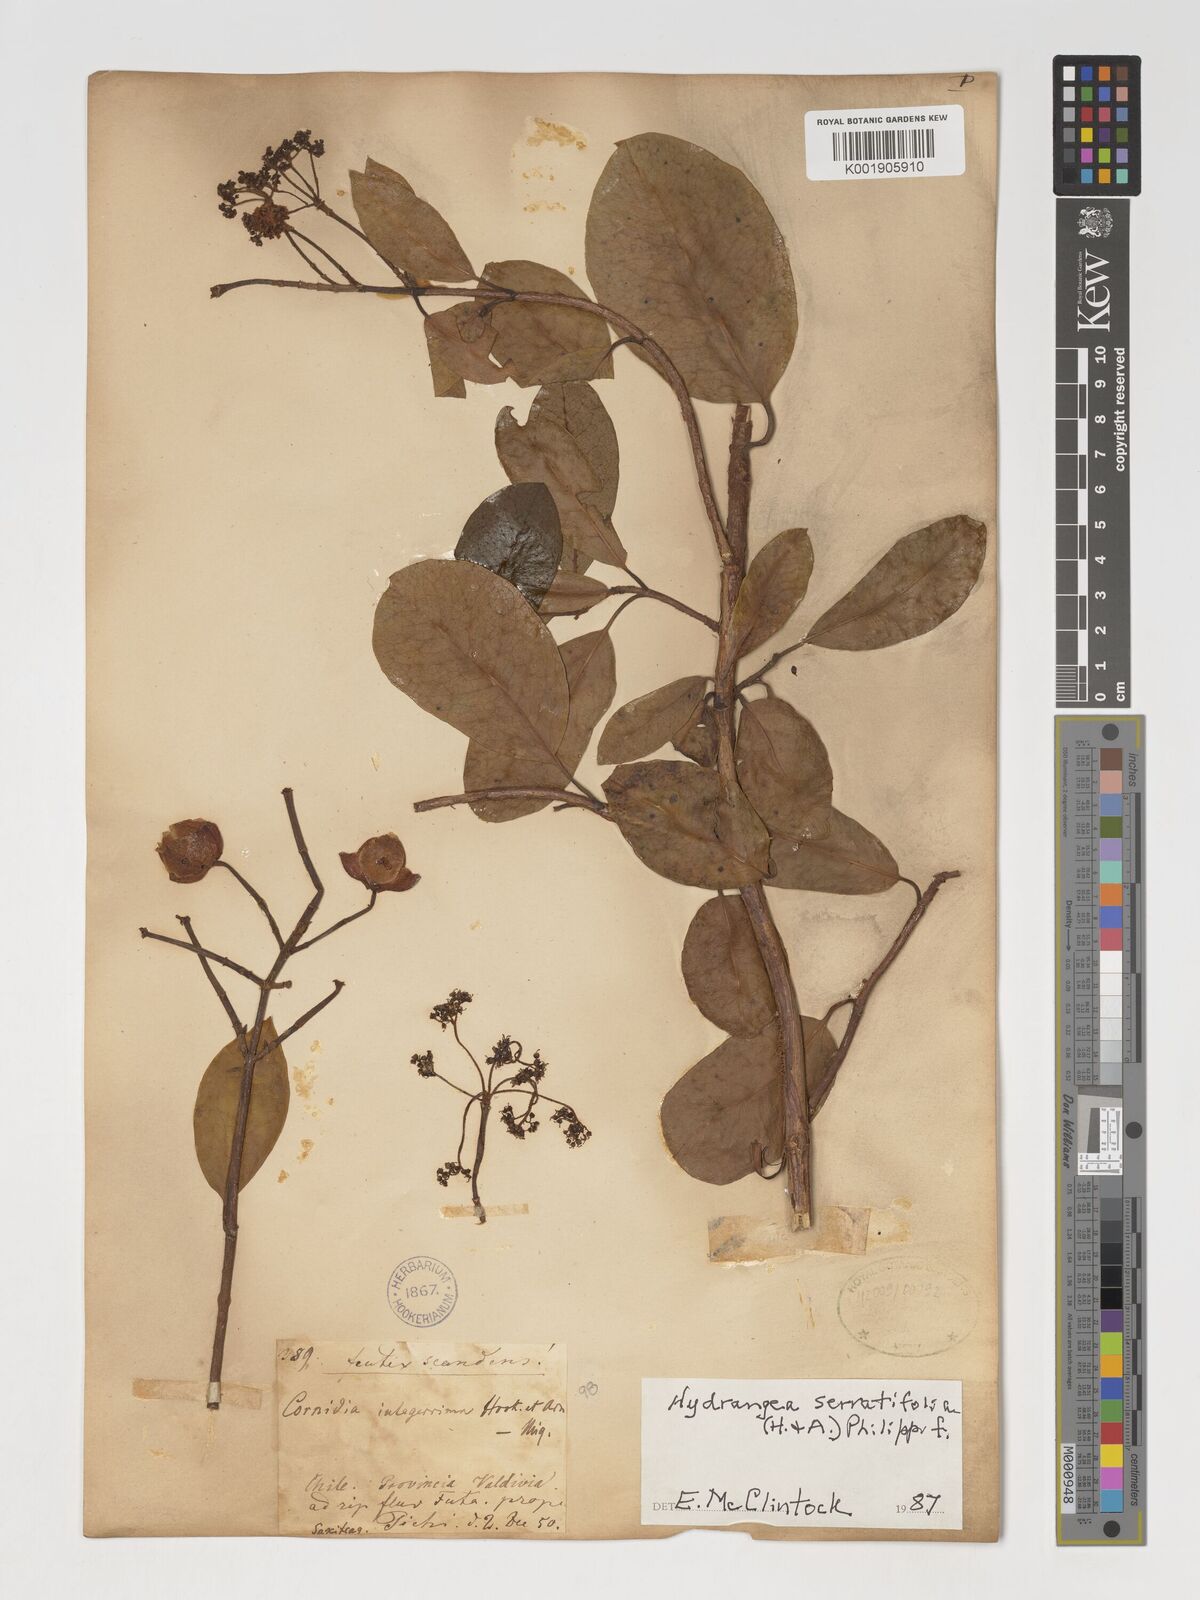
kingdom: Plantae
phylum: Tracheophyta
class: Magnoliopsida
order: Cornales
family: Hydrangeaceae
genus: Hydrangea
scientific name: Hydrangea serratifolia
